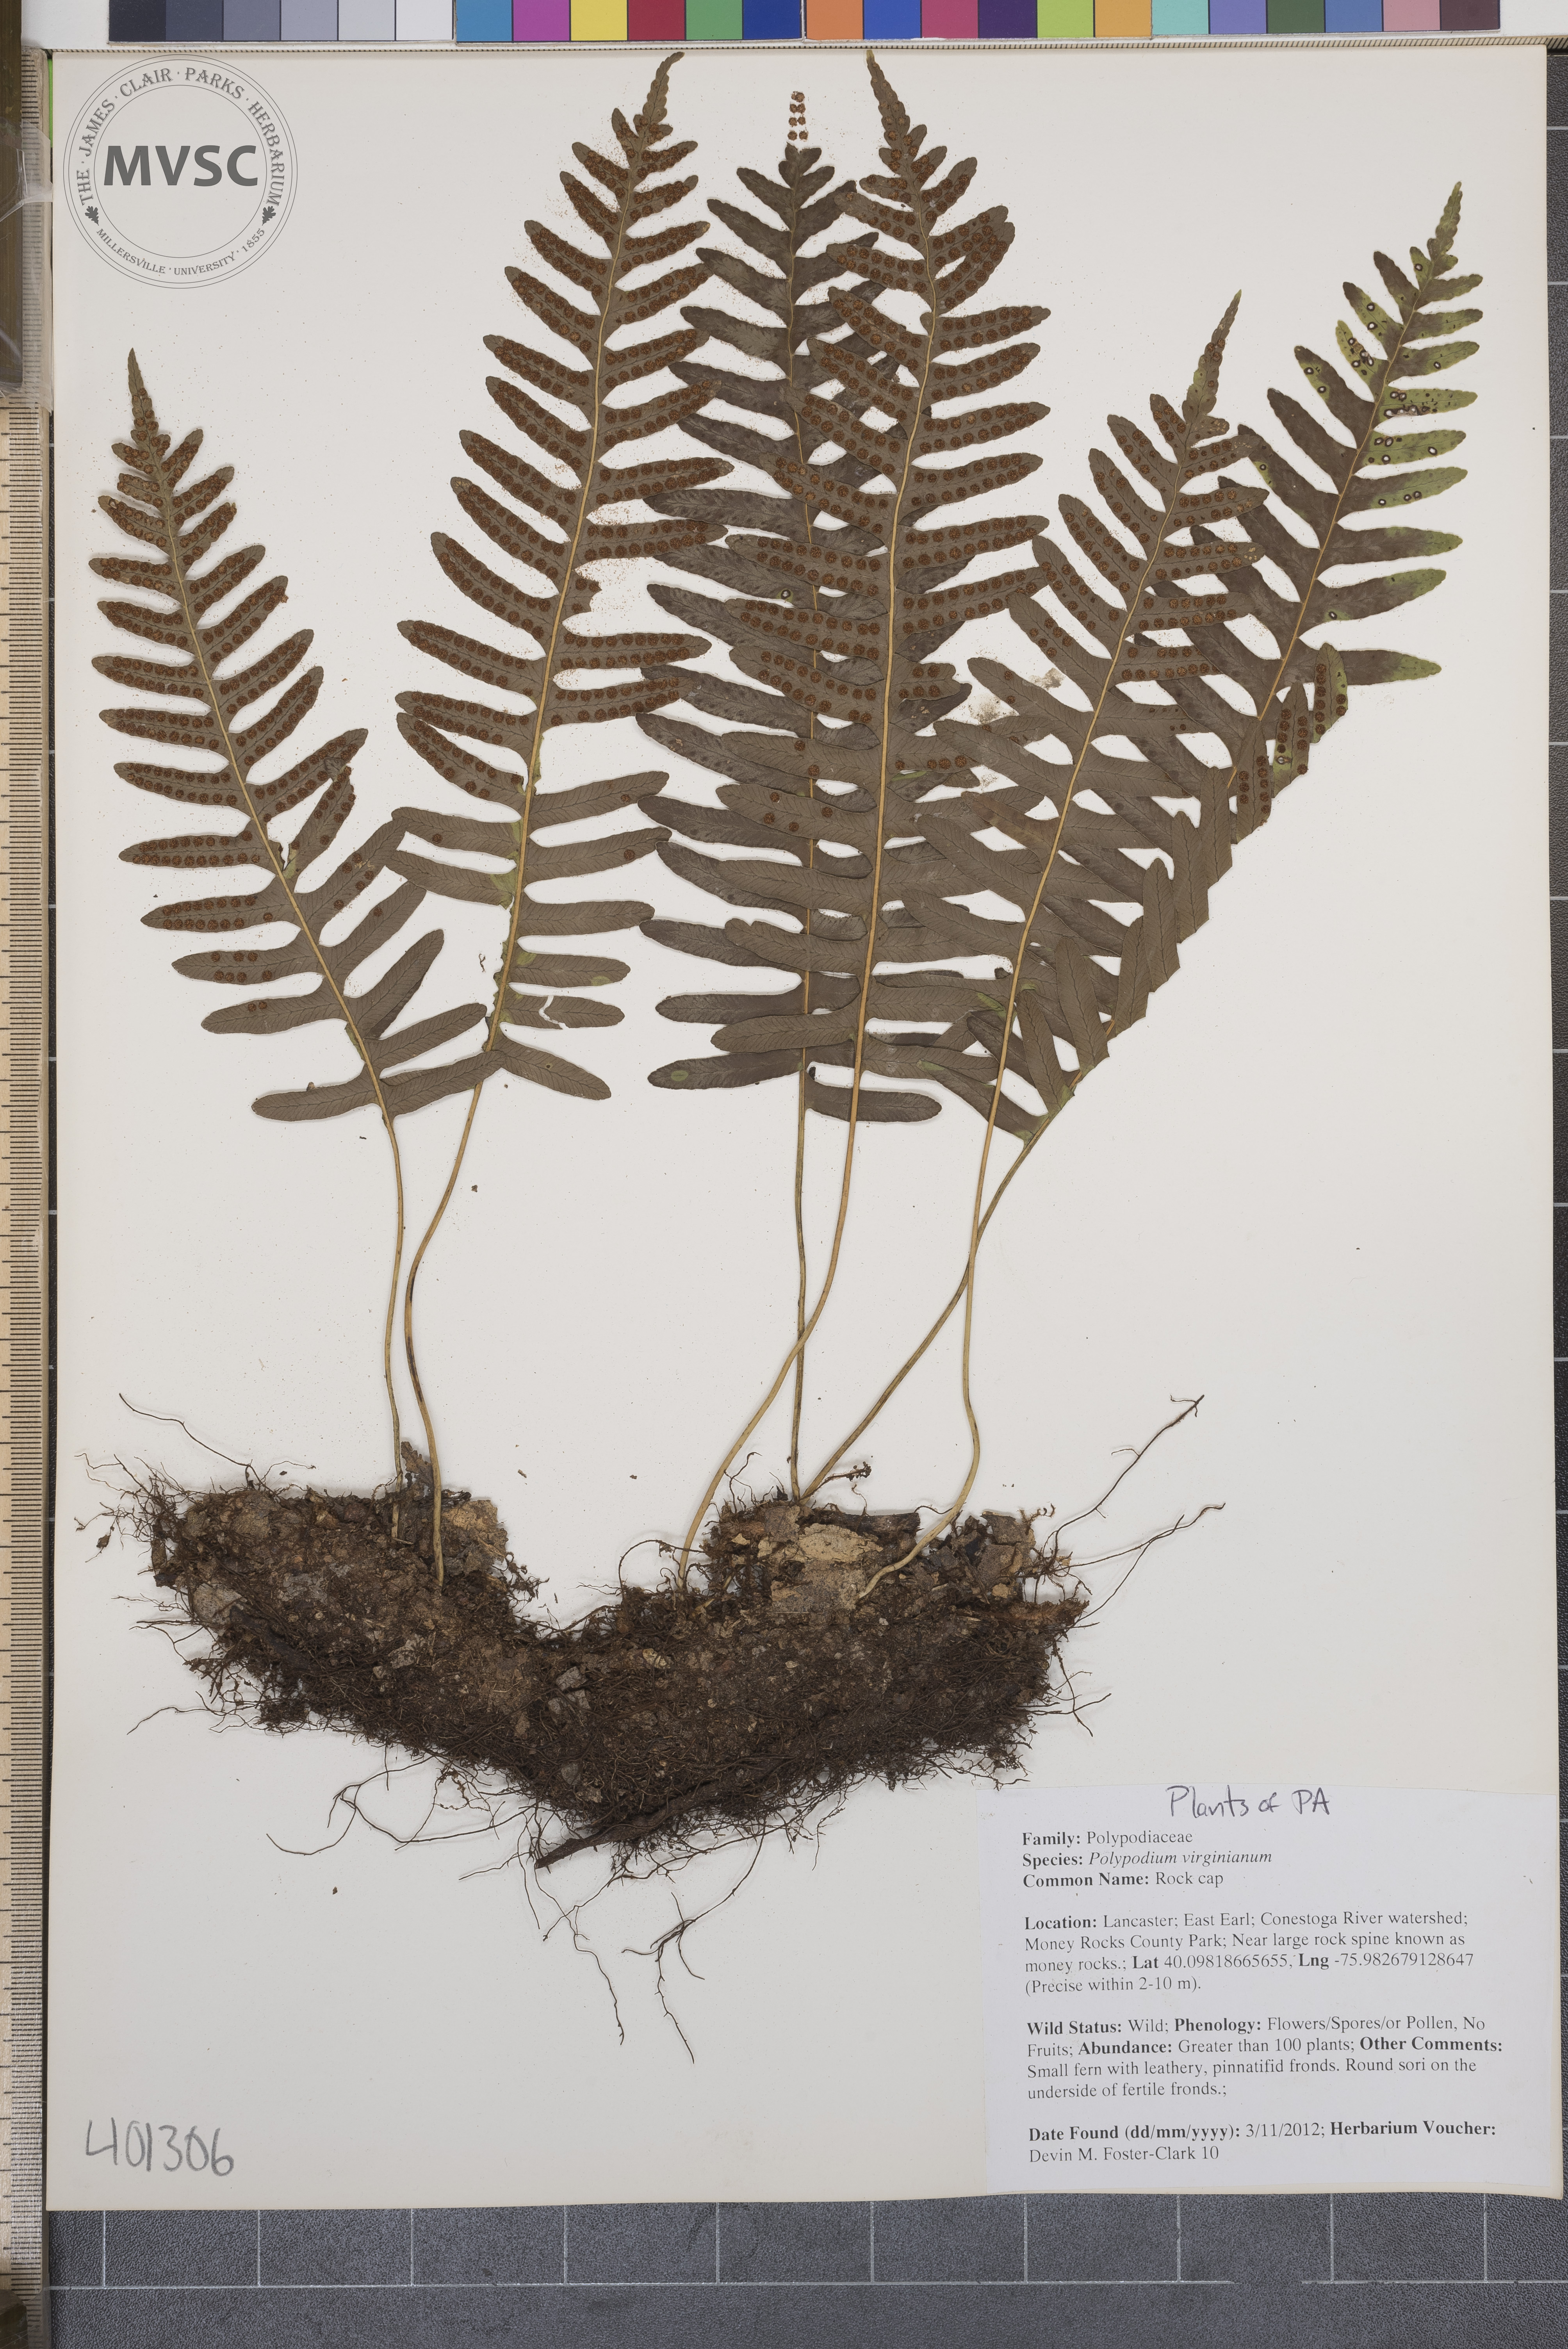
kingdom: Plantae
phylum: Tracheophyta
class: Polypodiopsida
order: Polypodiales
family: Polypodiaceae
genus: Polypodium
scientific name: Polypodium virginianum
